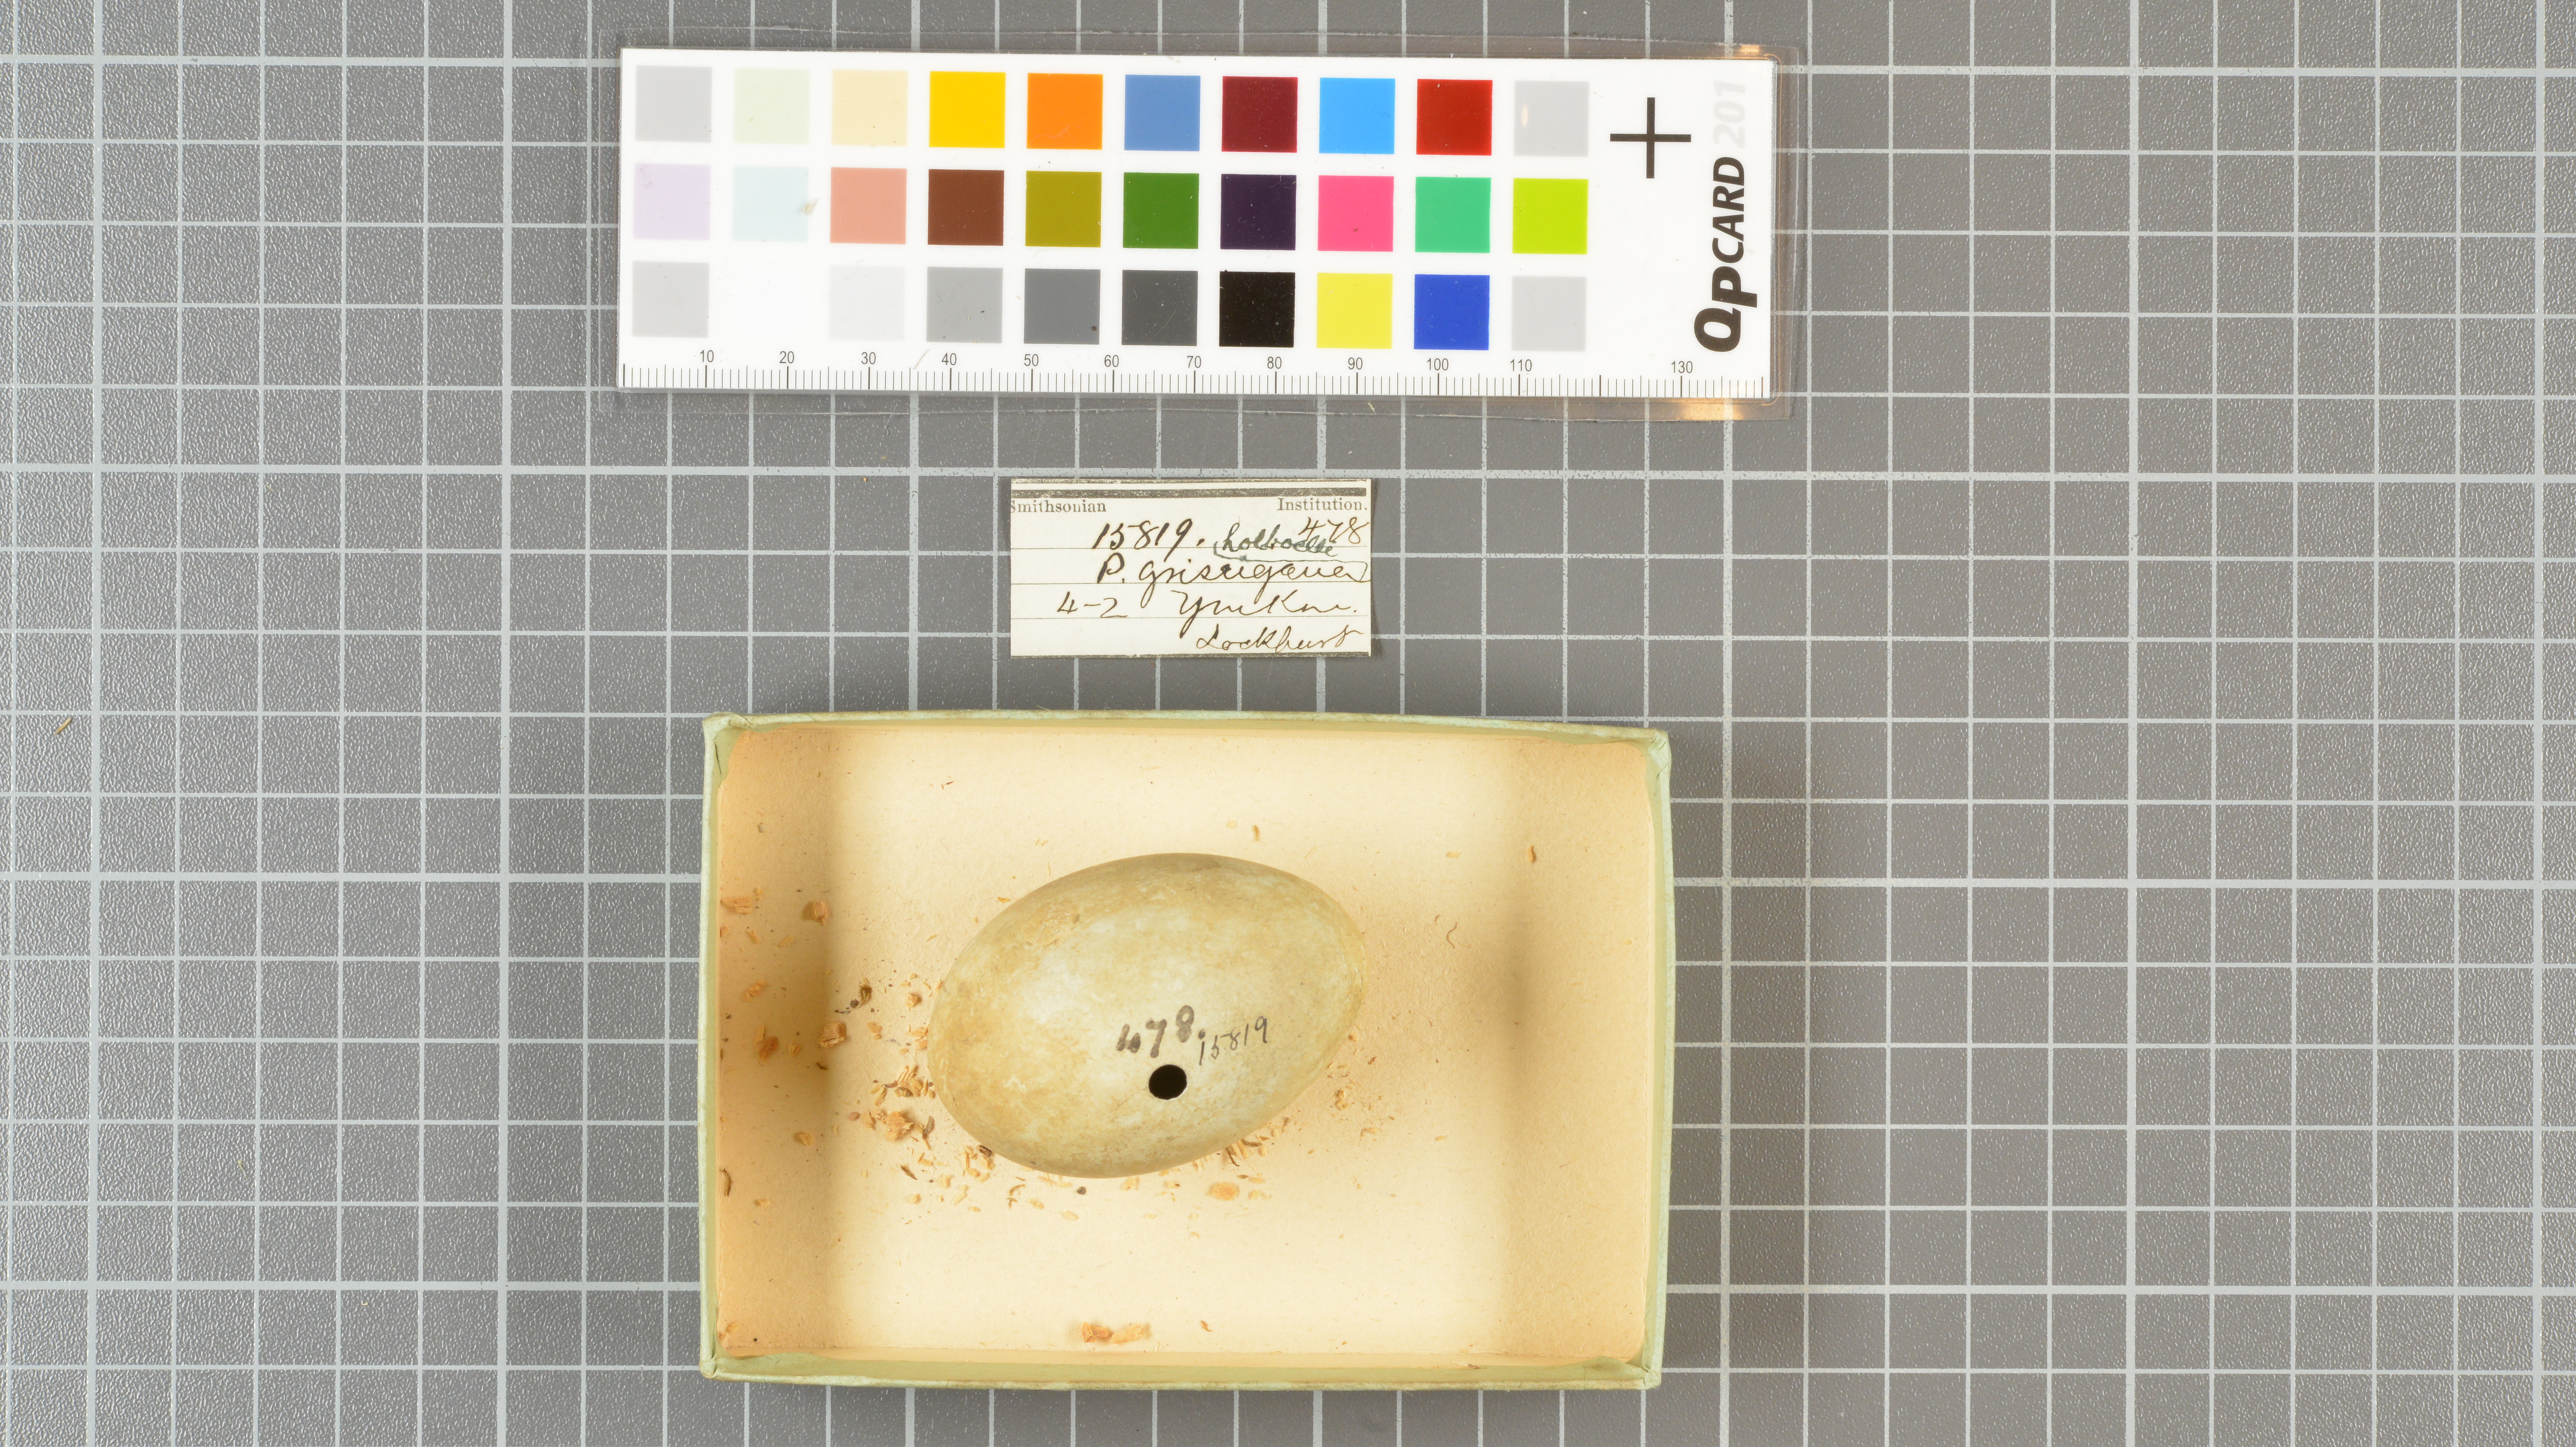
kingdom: Animalia
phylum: Chordata
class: Aves
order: Podicipediformes
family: Podicipedidae
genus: Podiceps
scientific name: Podiceps grisegena
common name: Red-necked grebe
